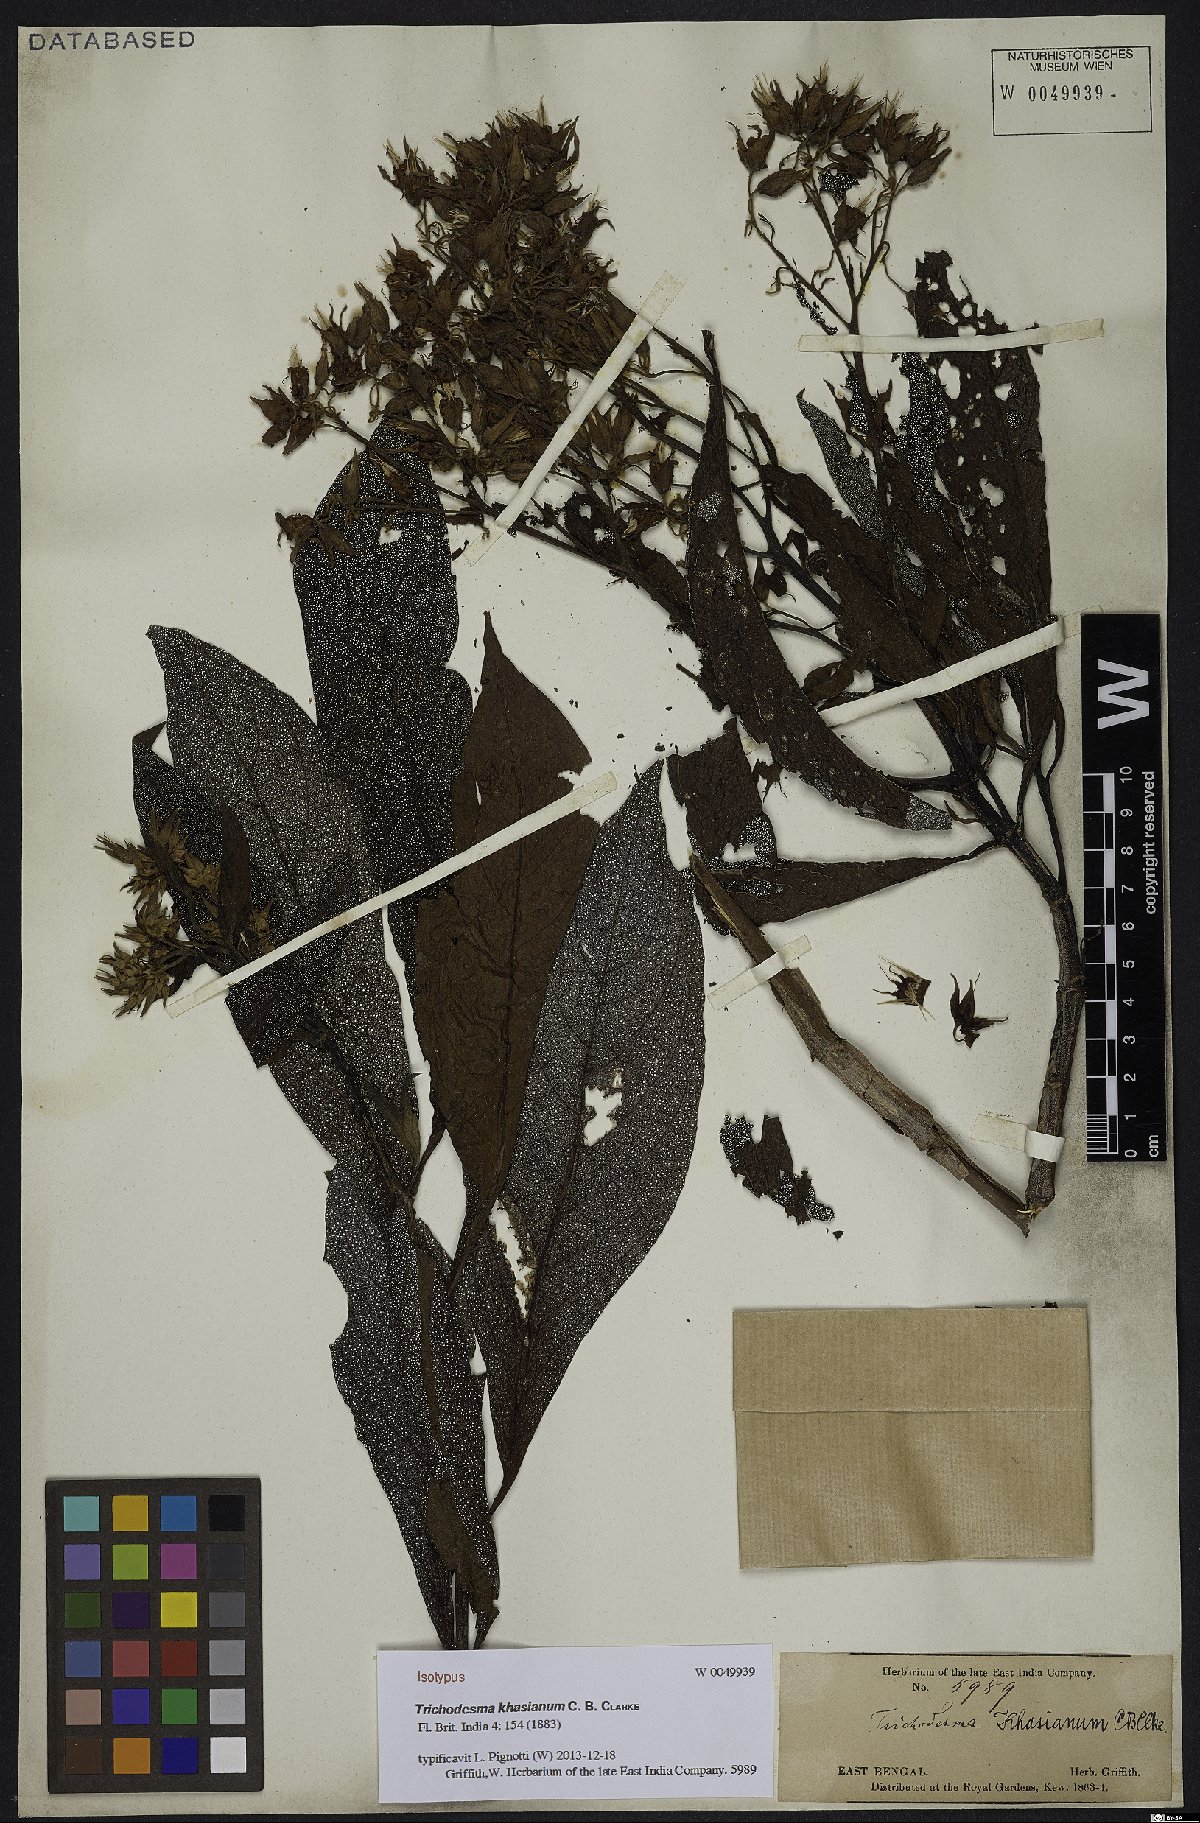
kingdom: Plantae
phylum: Tracheophyta
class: Magnoliopsida
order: Boraginales
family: Boraginaceae
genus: Trichodesma
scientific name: Trichodesma khasianum
